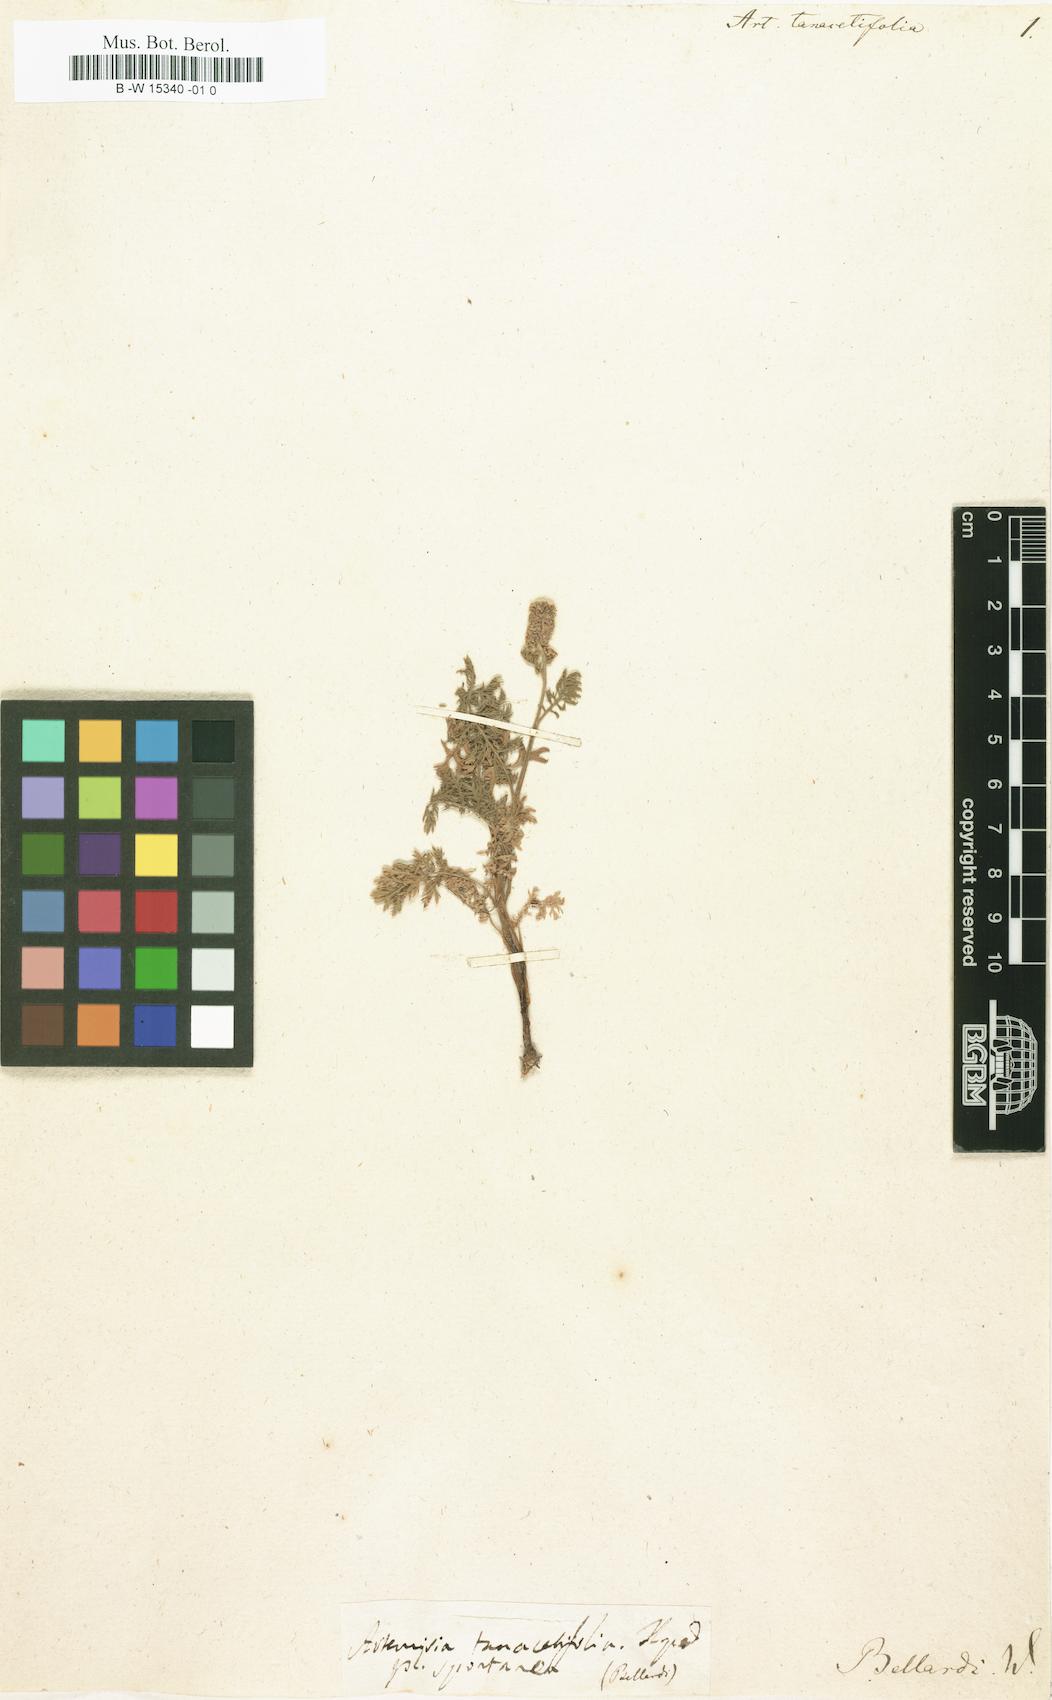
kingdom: Plantae
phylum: Tracheophyta
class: Magnoliopsida
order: Asterales
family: Asteraceae
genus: Artemisia
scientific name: Artemisia tanacetifolia
